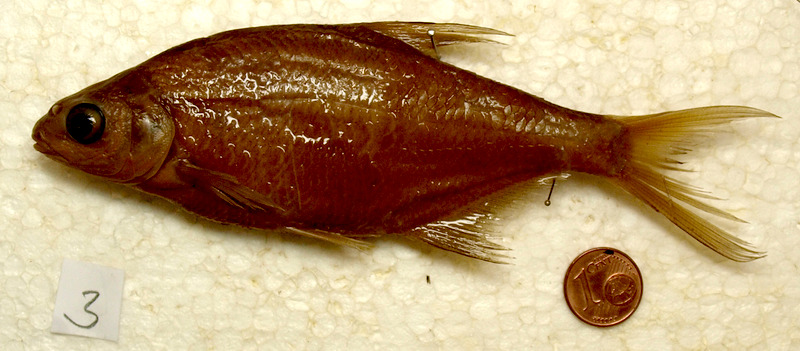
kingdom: Animalia
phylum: Chordata
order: Cypriniformes
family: Cyprinidae
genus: Alburnus
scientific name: Alburnus alburnus
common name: Bleak
